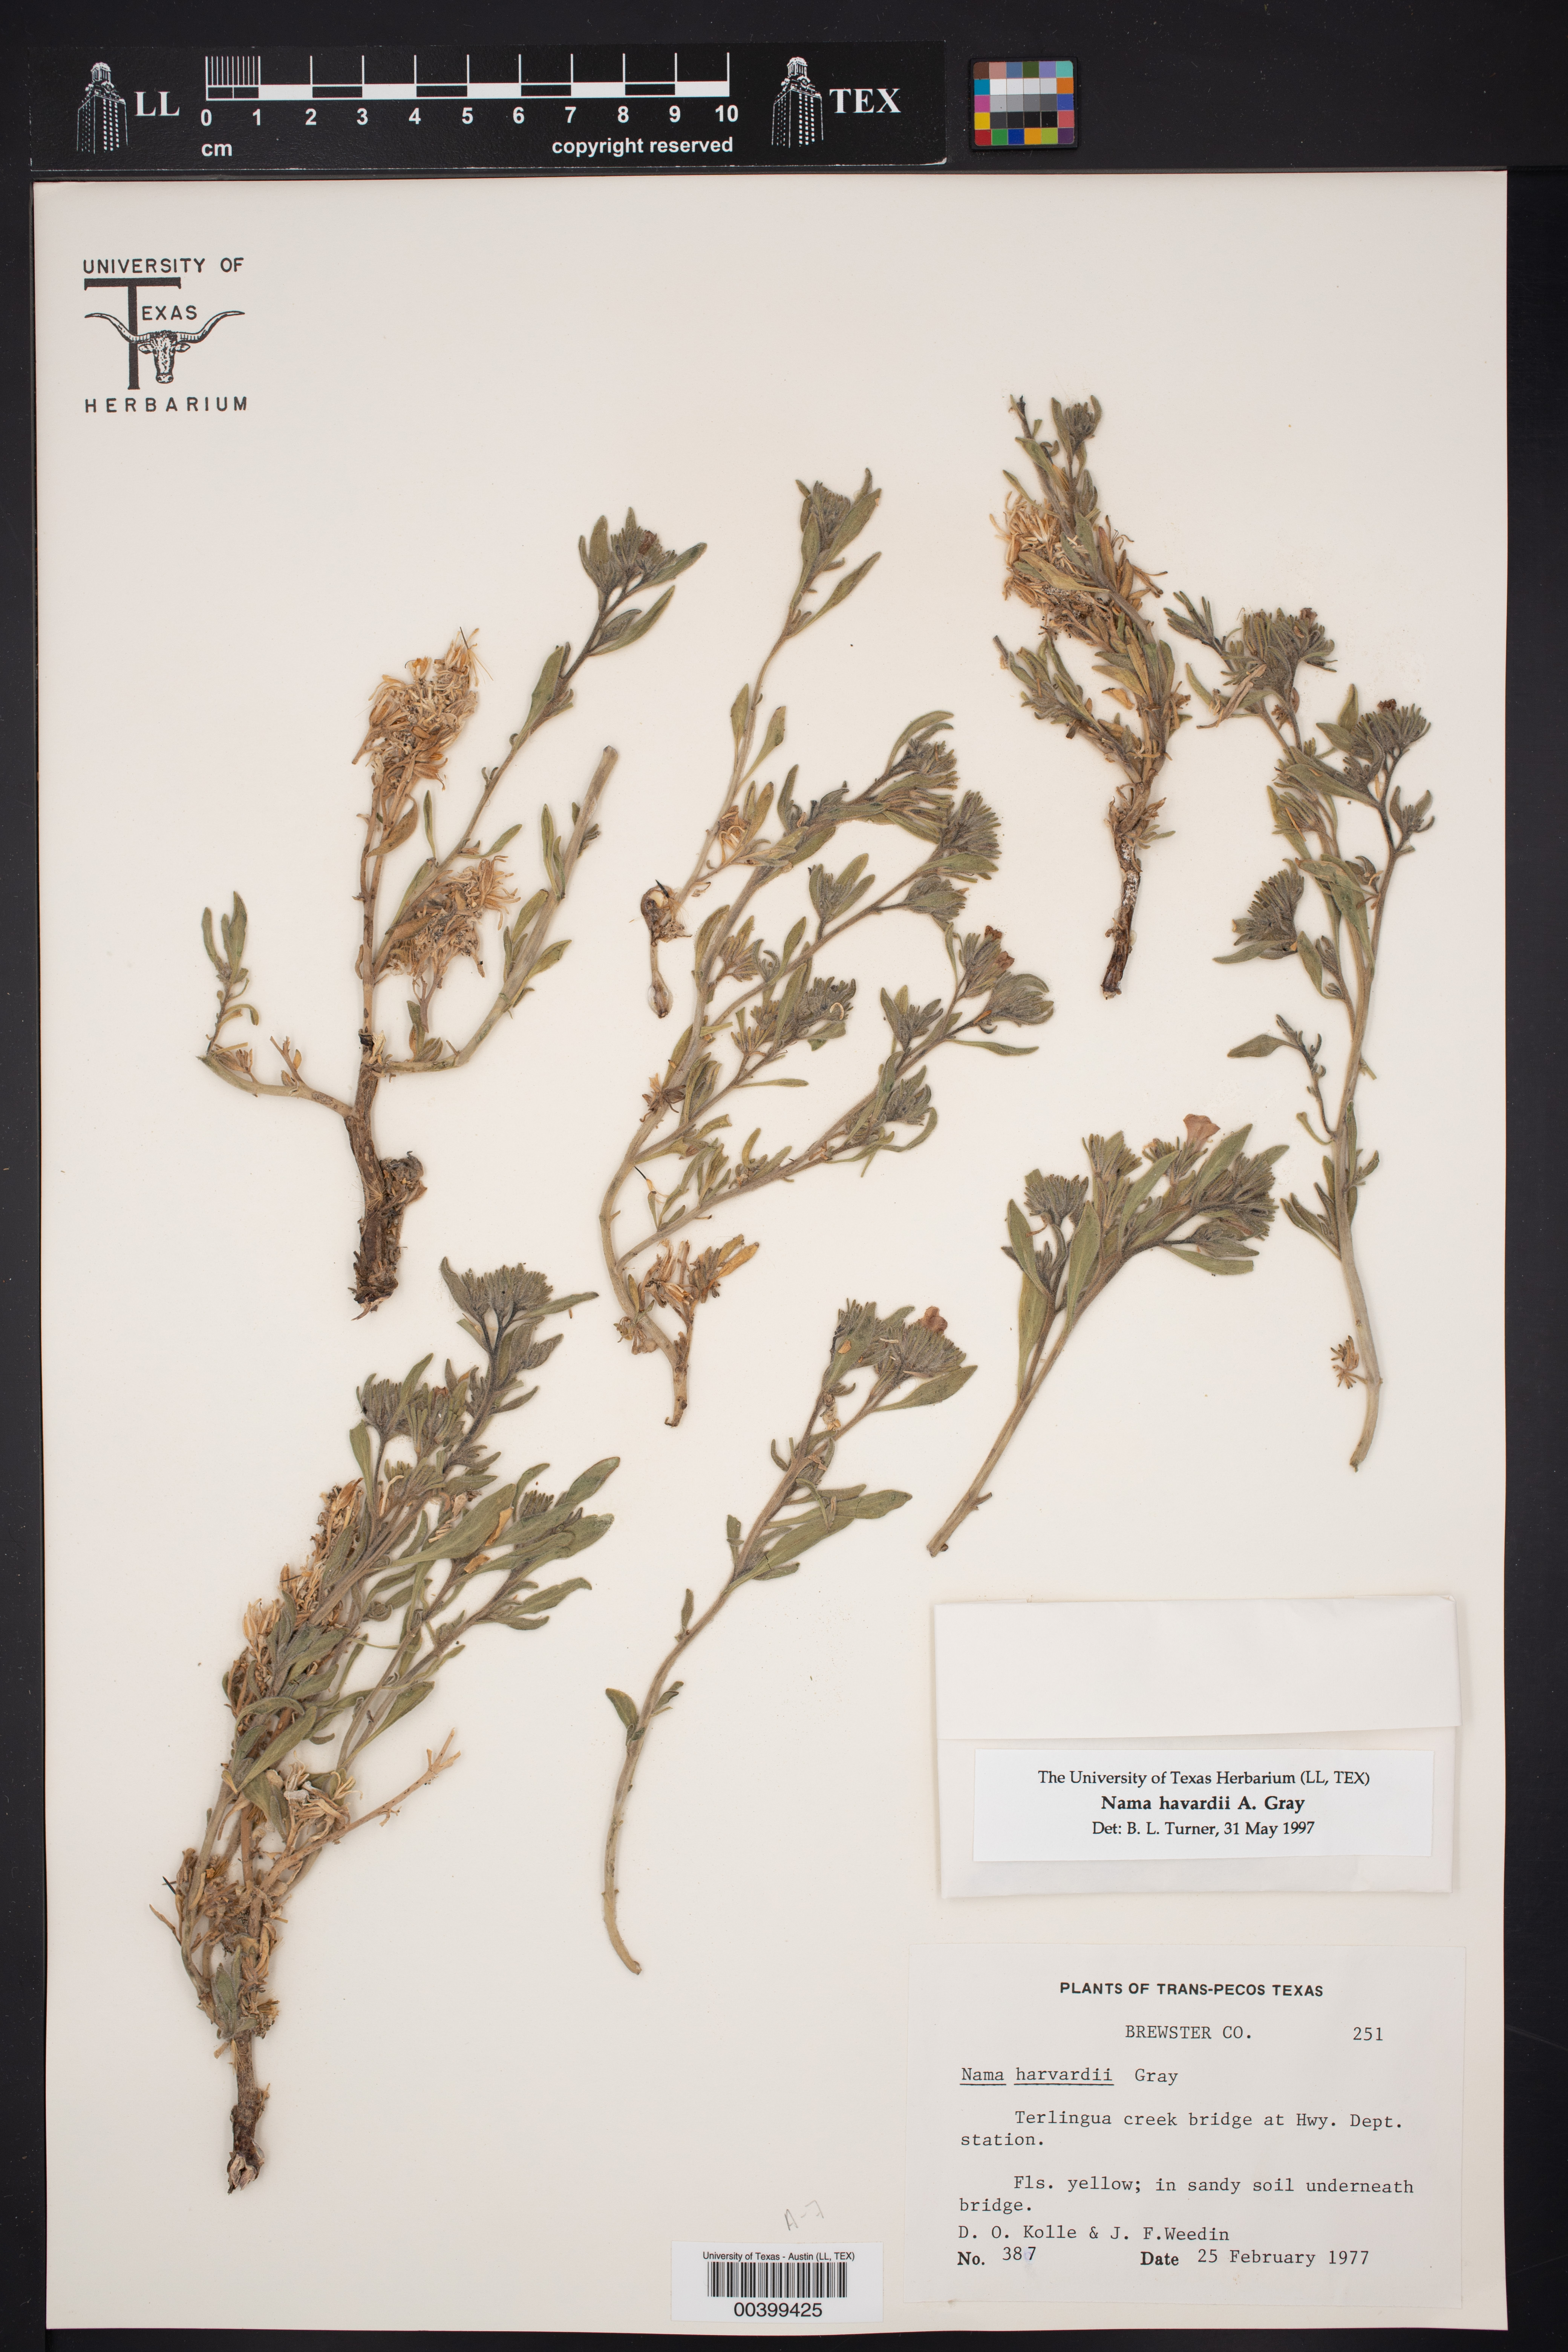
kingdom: Plantae
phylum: Tracheophyta
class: Magnoliopsida
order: Boraginales
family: Namaceae
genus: Nama
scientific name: Nama havardii
